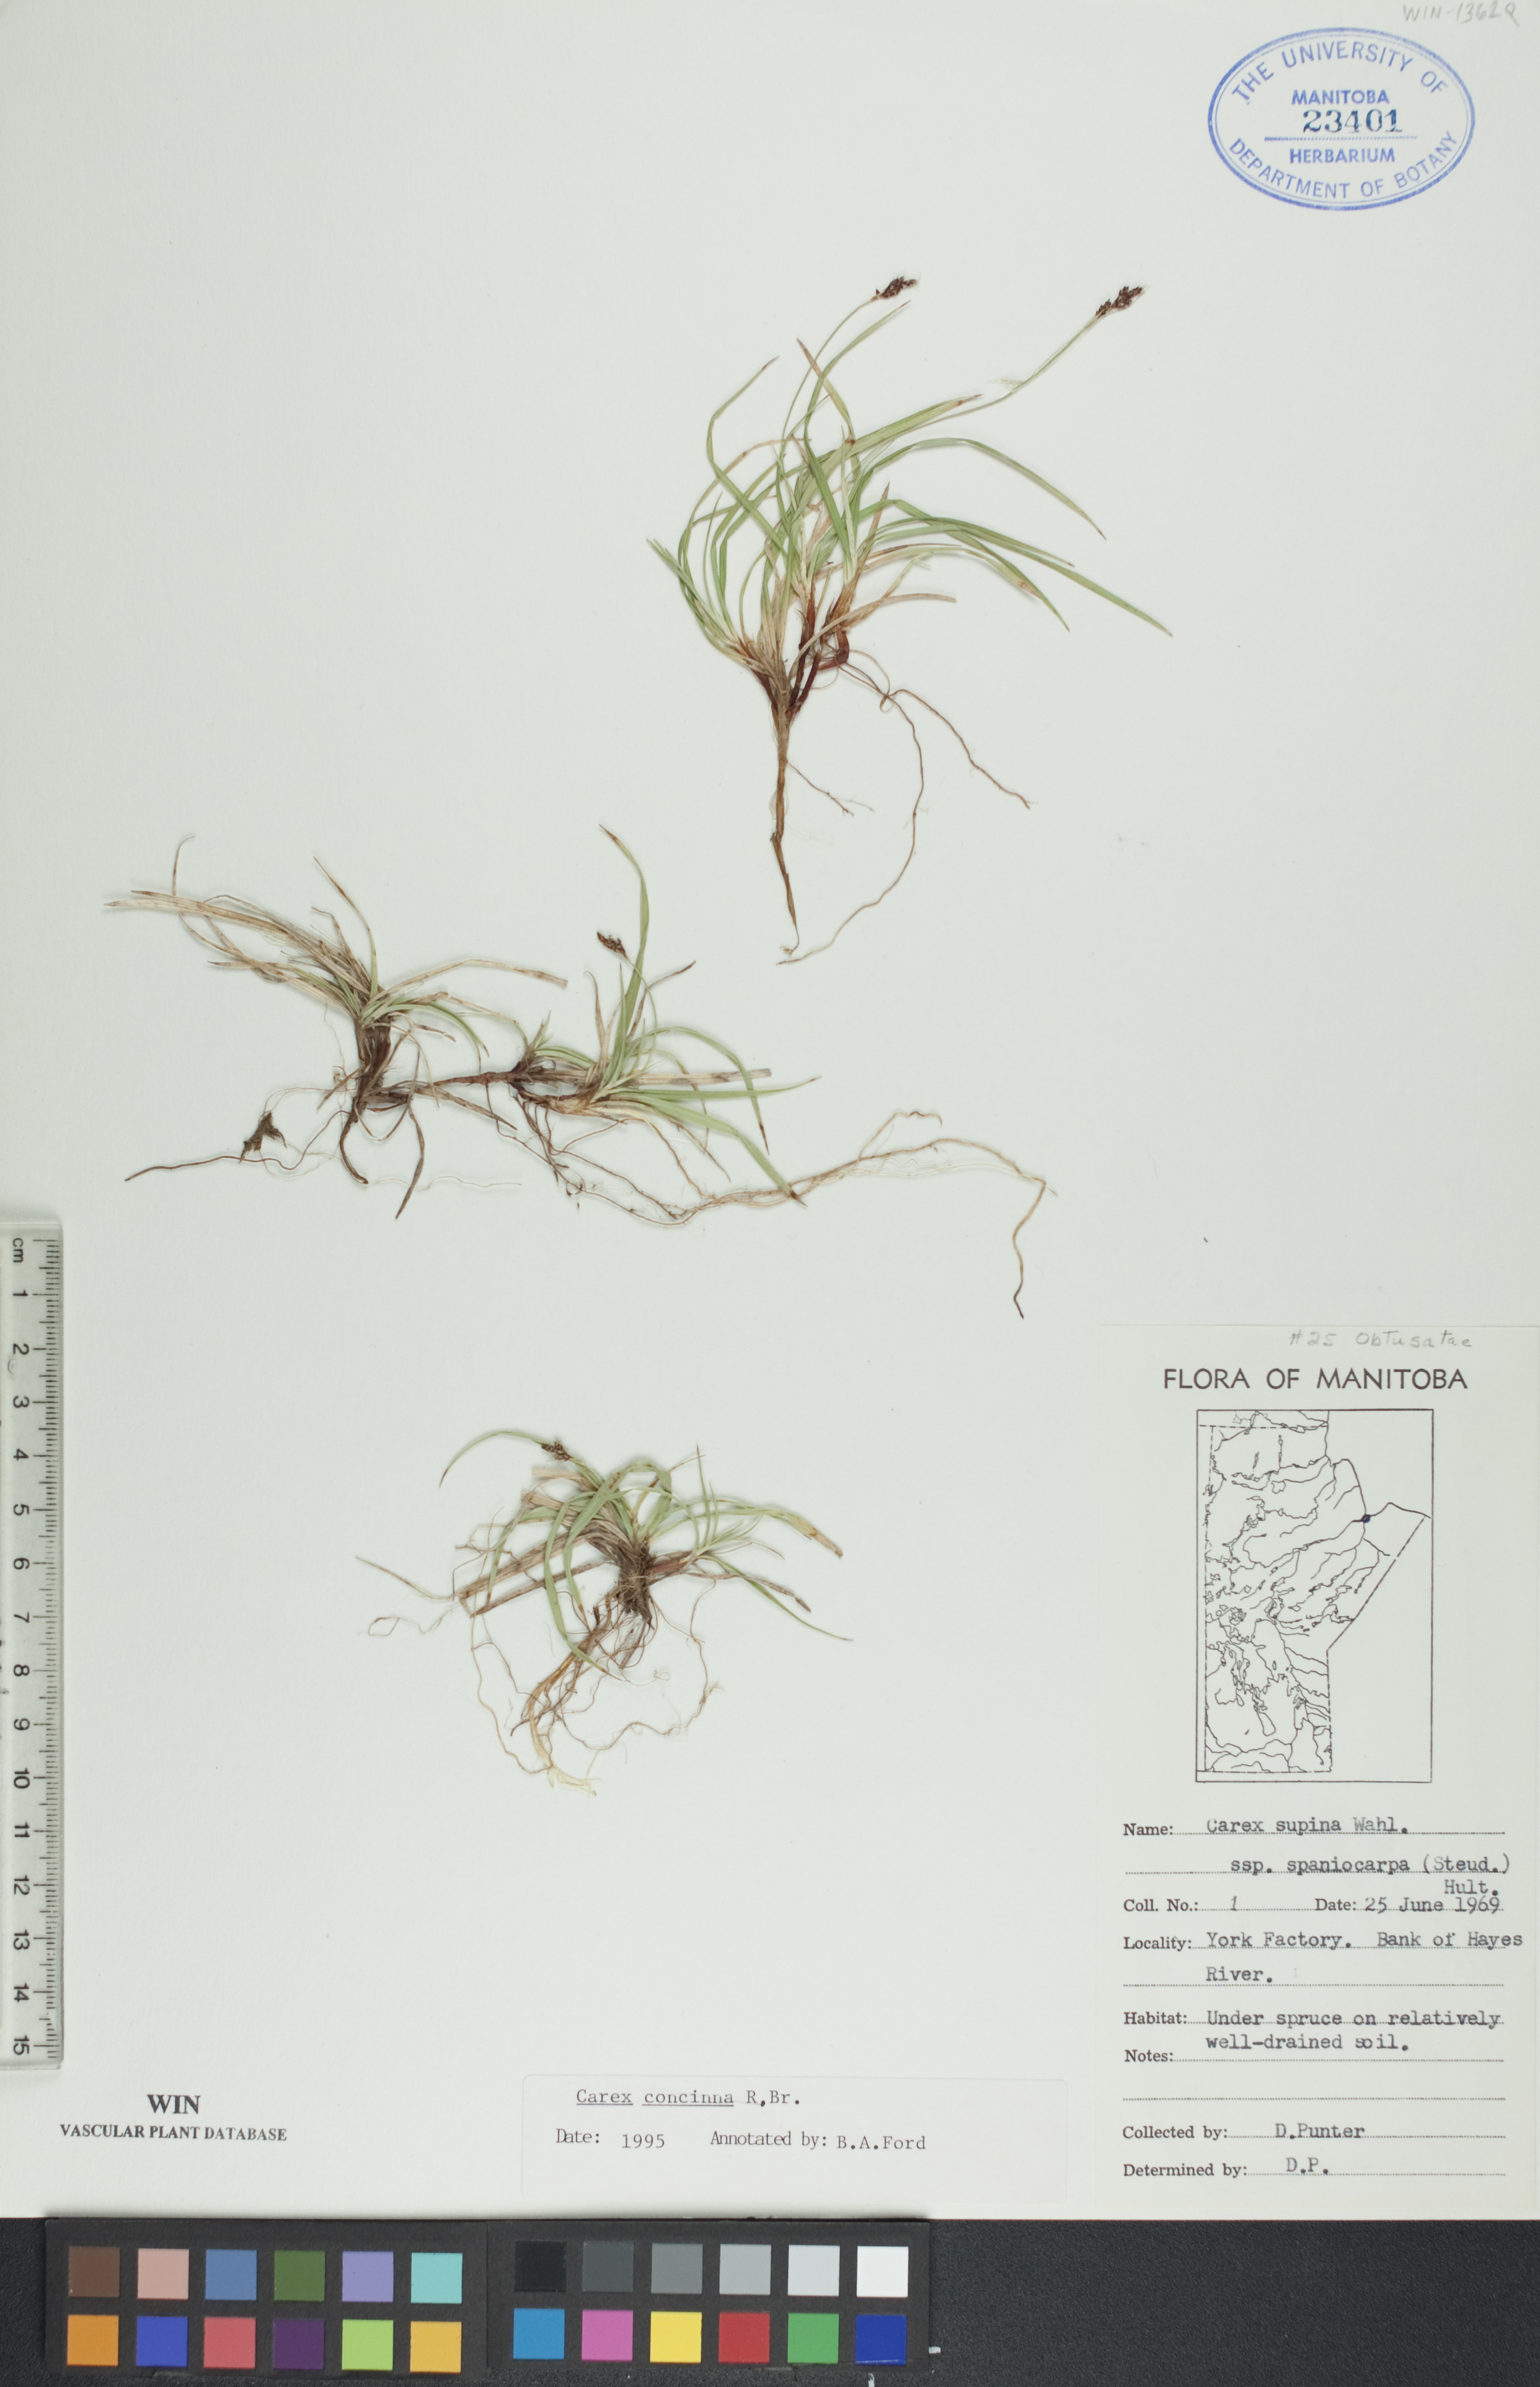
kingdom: Plantae
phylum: Tracheophyta
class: Liliopsida
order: Poales
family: Cyperaceae
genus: Carex
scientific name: Carex concinna
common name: Beautiful sedge
